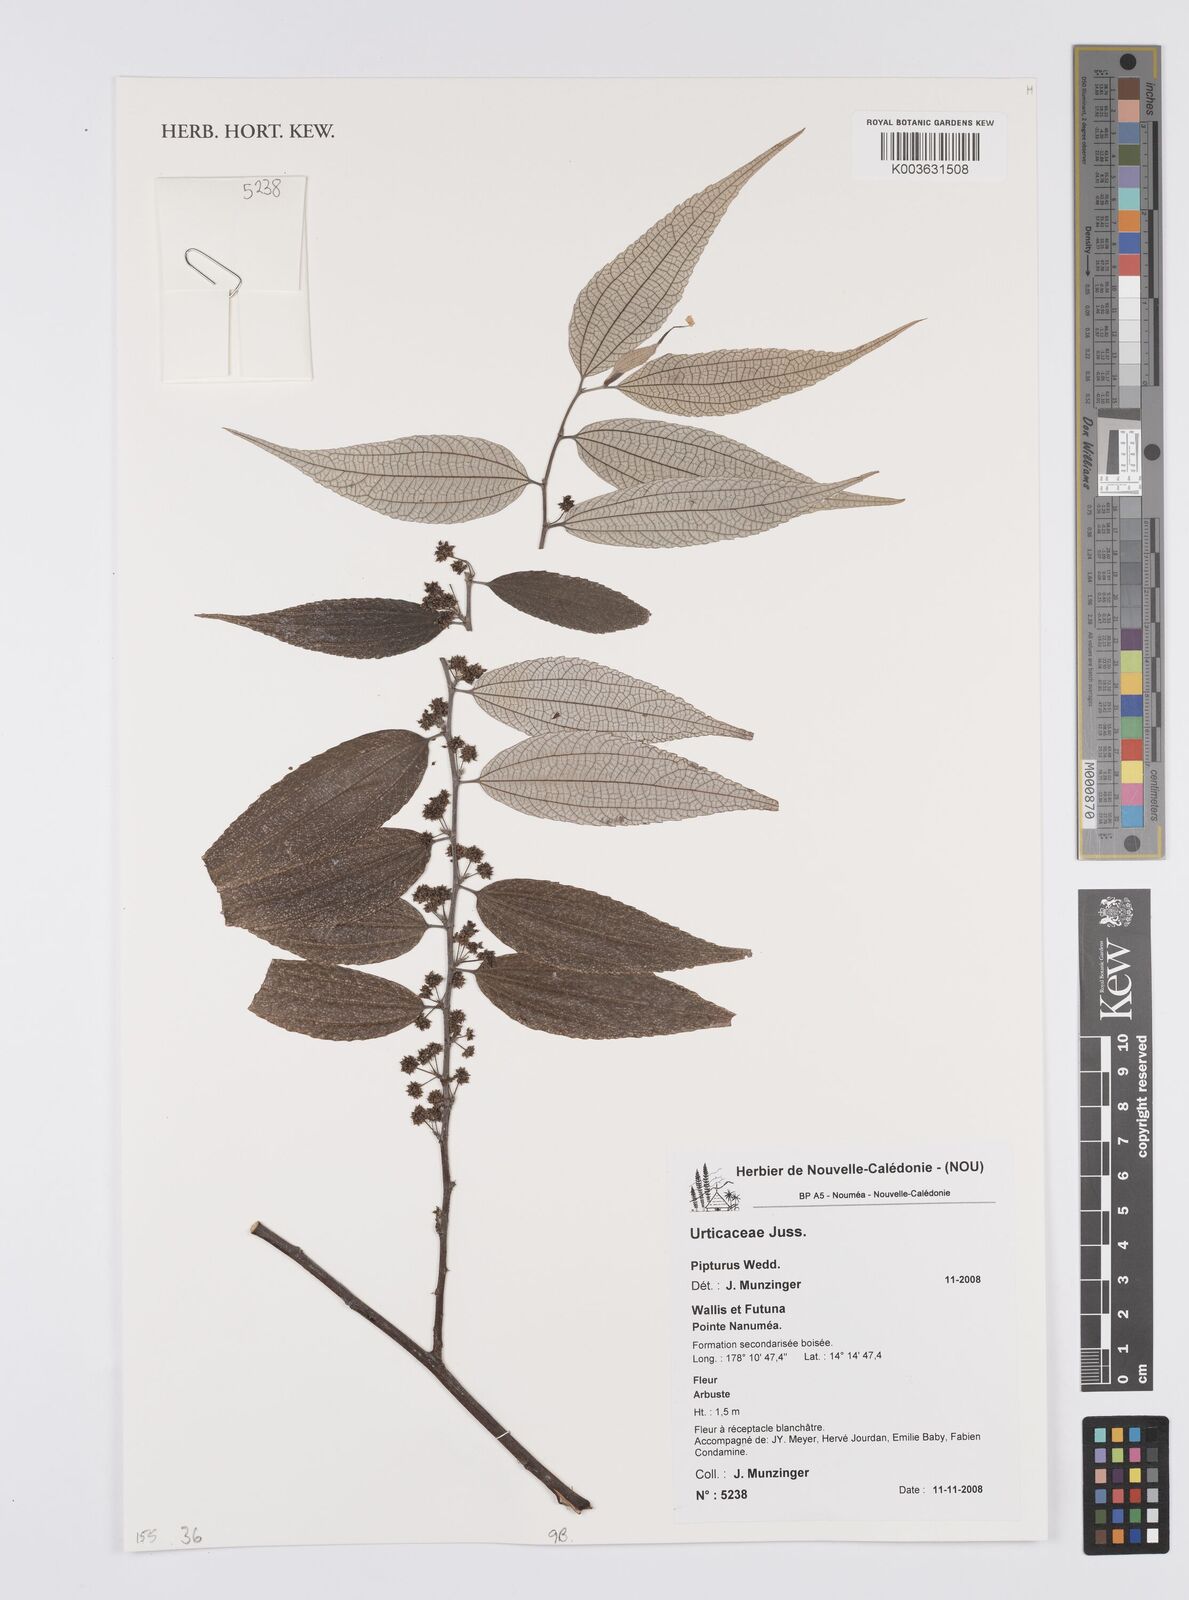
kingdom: Plantae
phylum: Tracheophyta
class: Magnoliopsida
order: Rosales
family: Urticaceae
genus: Pipturus
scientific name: Pipturus
